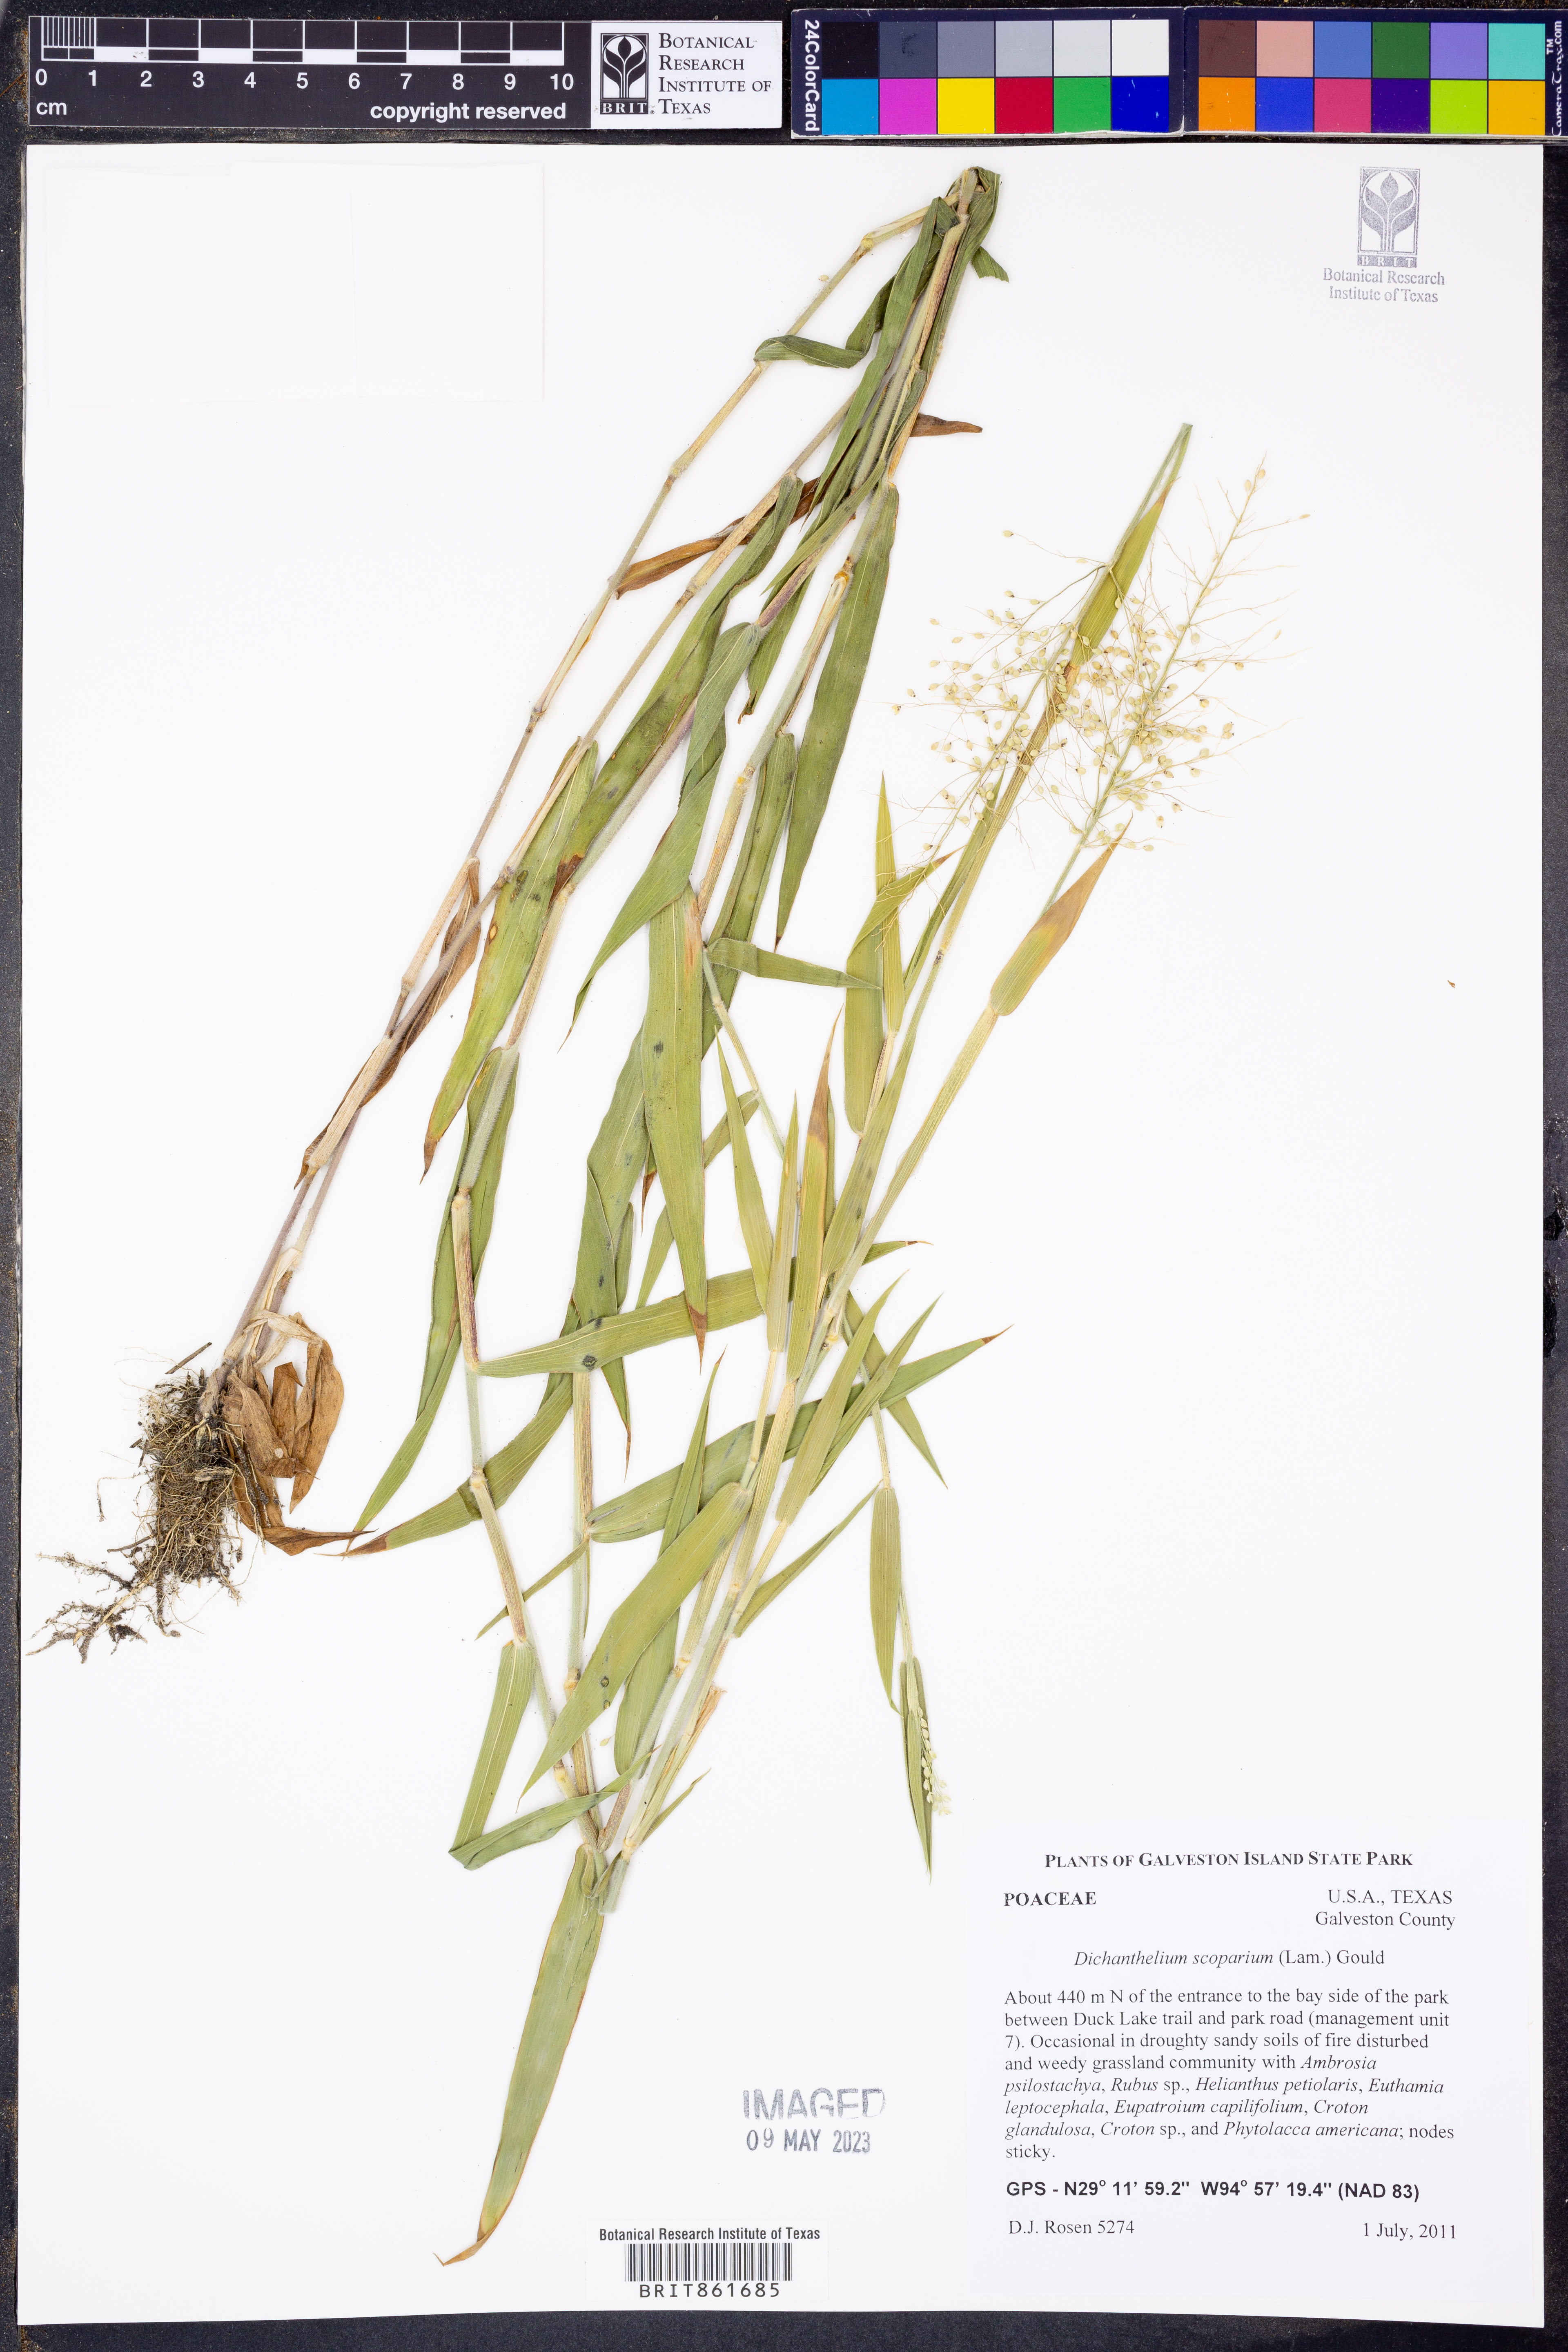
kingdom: Plantae
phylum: Tracheophyta
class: Liliopsida
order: Poales
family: Poaceae
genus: Dichanthelium
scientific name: Dichanthelium scoparium
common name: Velvety panic grass
